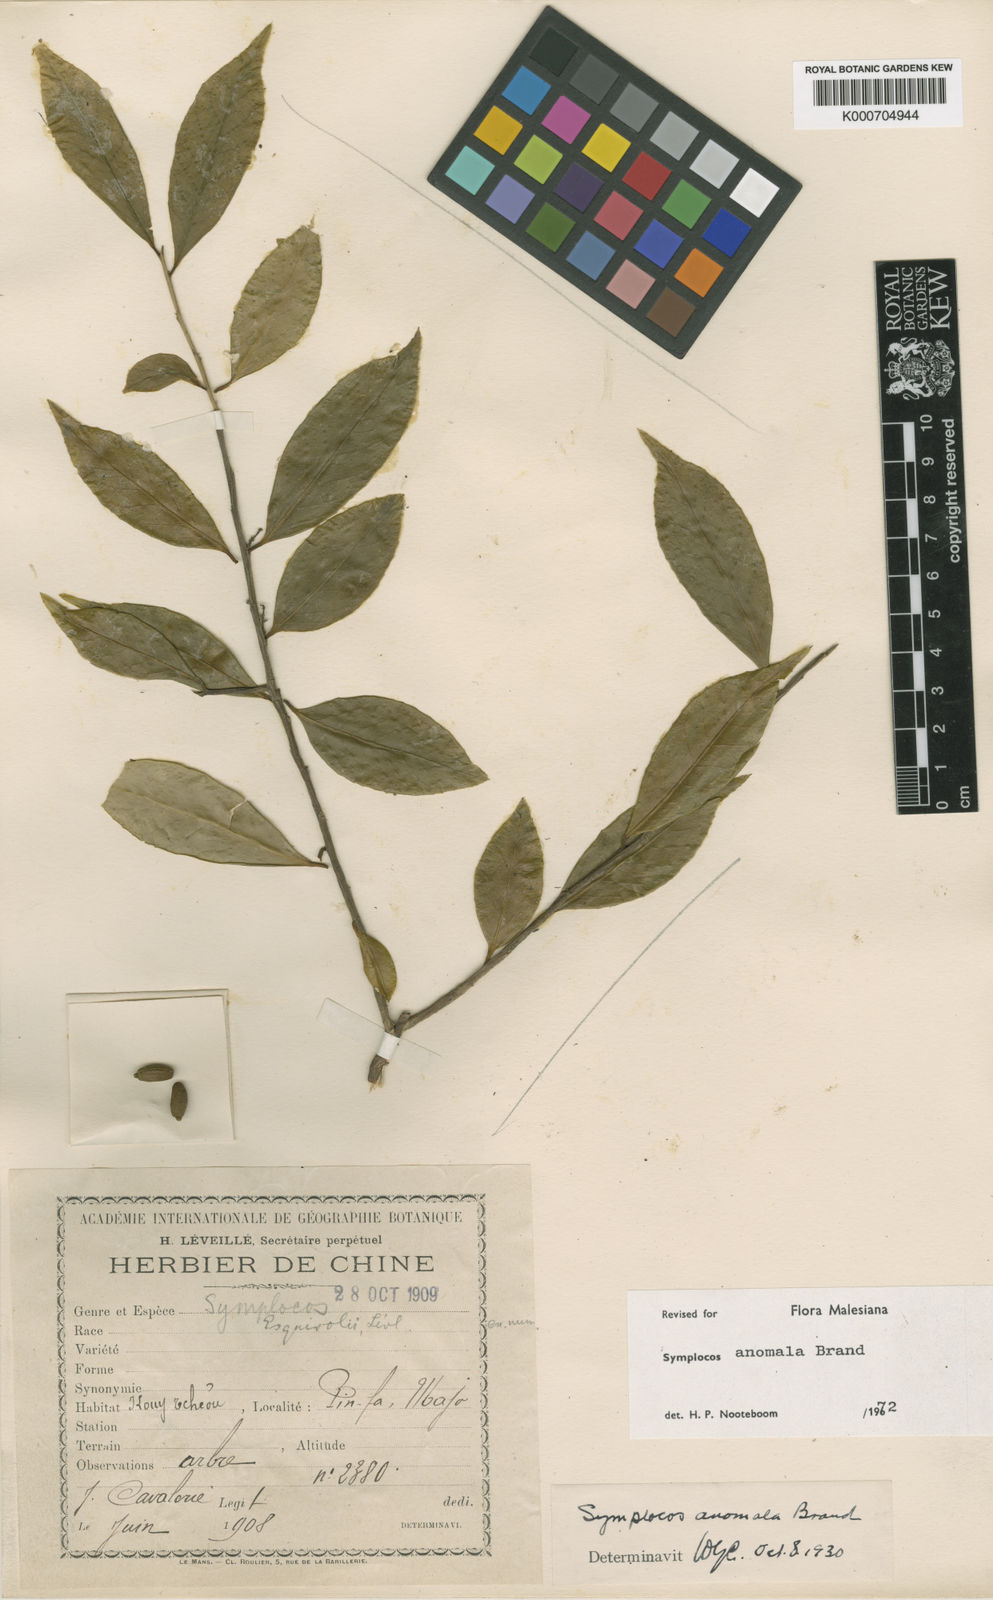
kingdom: Plantae
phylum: Tracheophyta
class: Magnoliopsida
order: Ericales
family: Symplocaceae
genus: Symplocos
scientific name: Symplocos anomala
